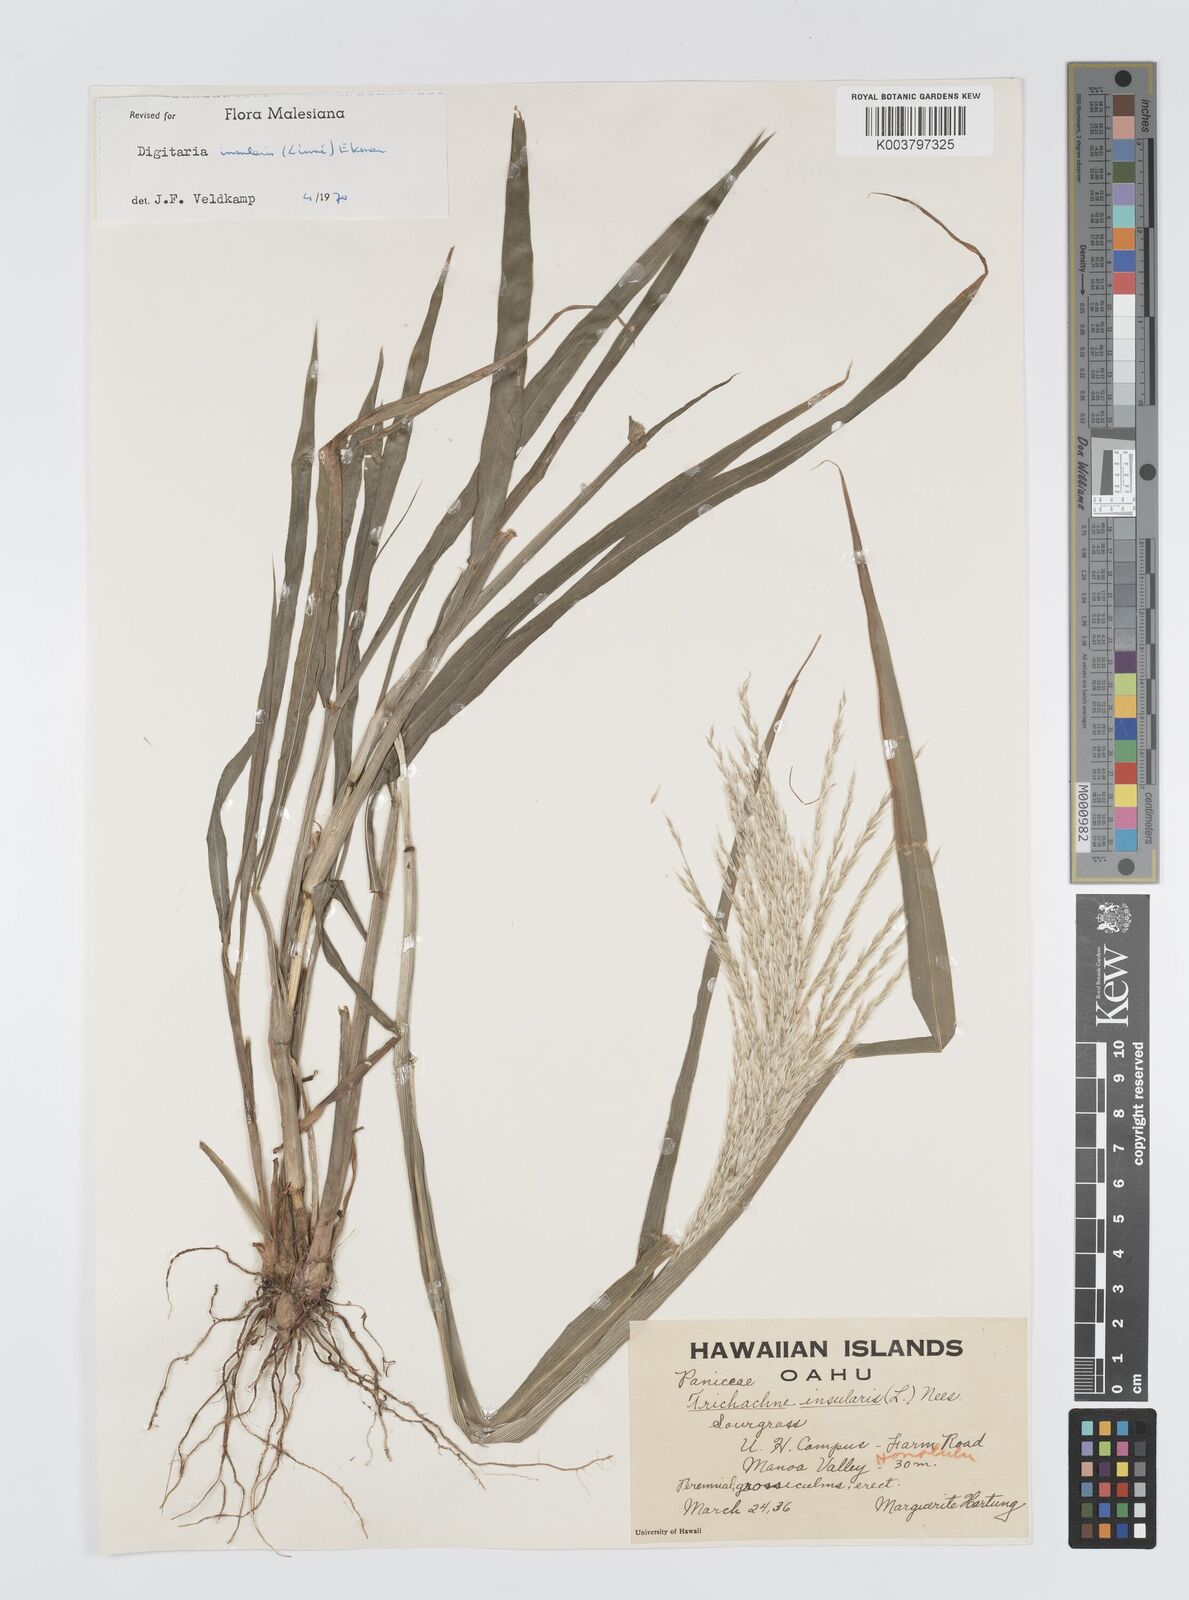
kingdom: Plantae
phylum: Tracheophyta
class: Liliopsida
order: Poales
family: Poaceae
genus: Digitaria
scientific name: Digitaria insularis
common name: Sourgrass
